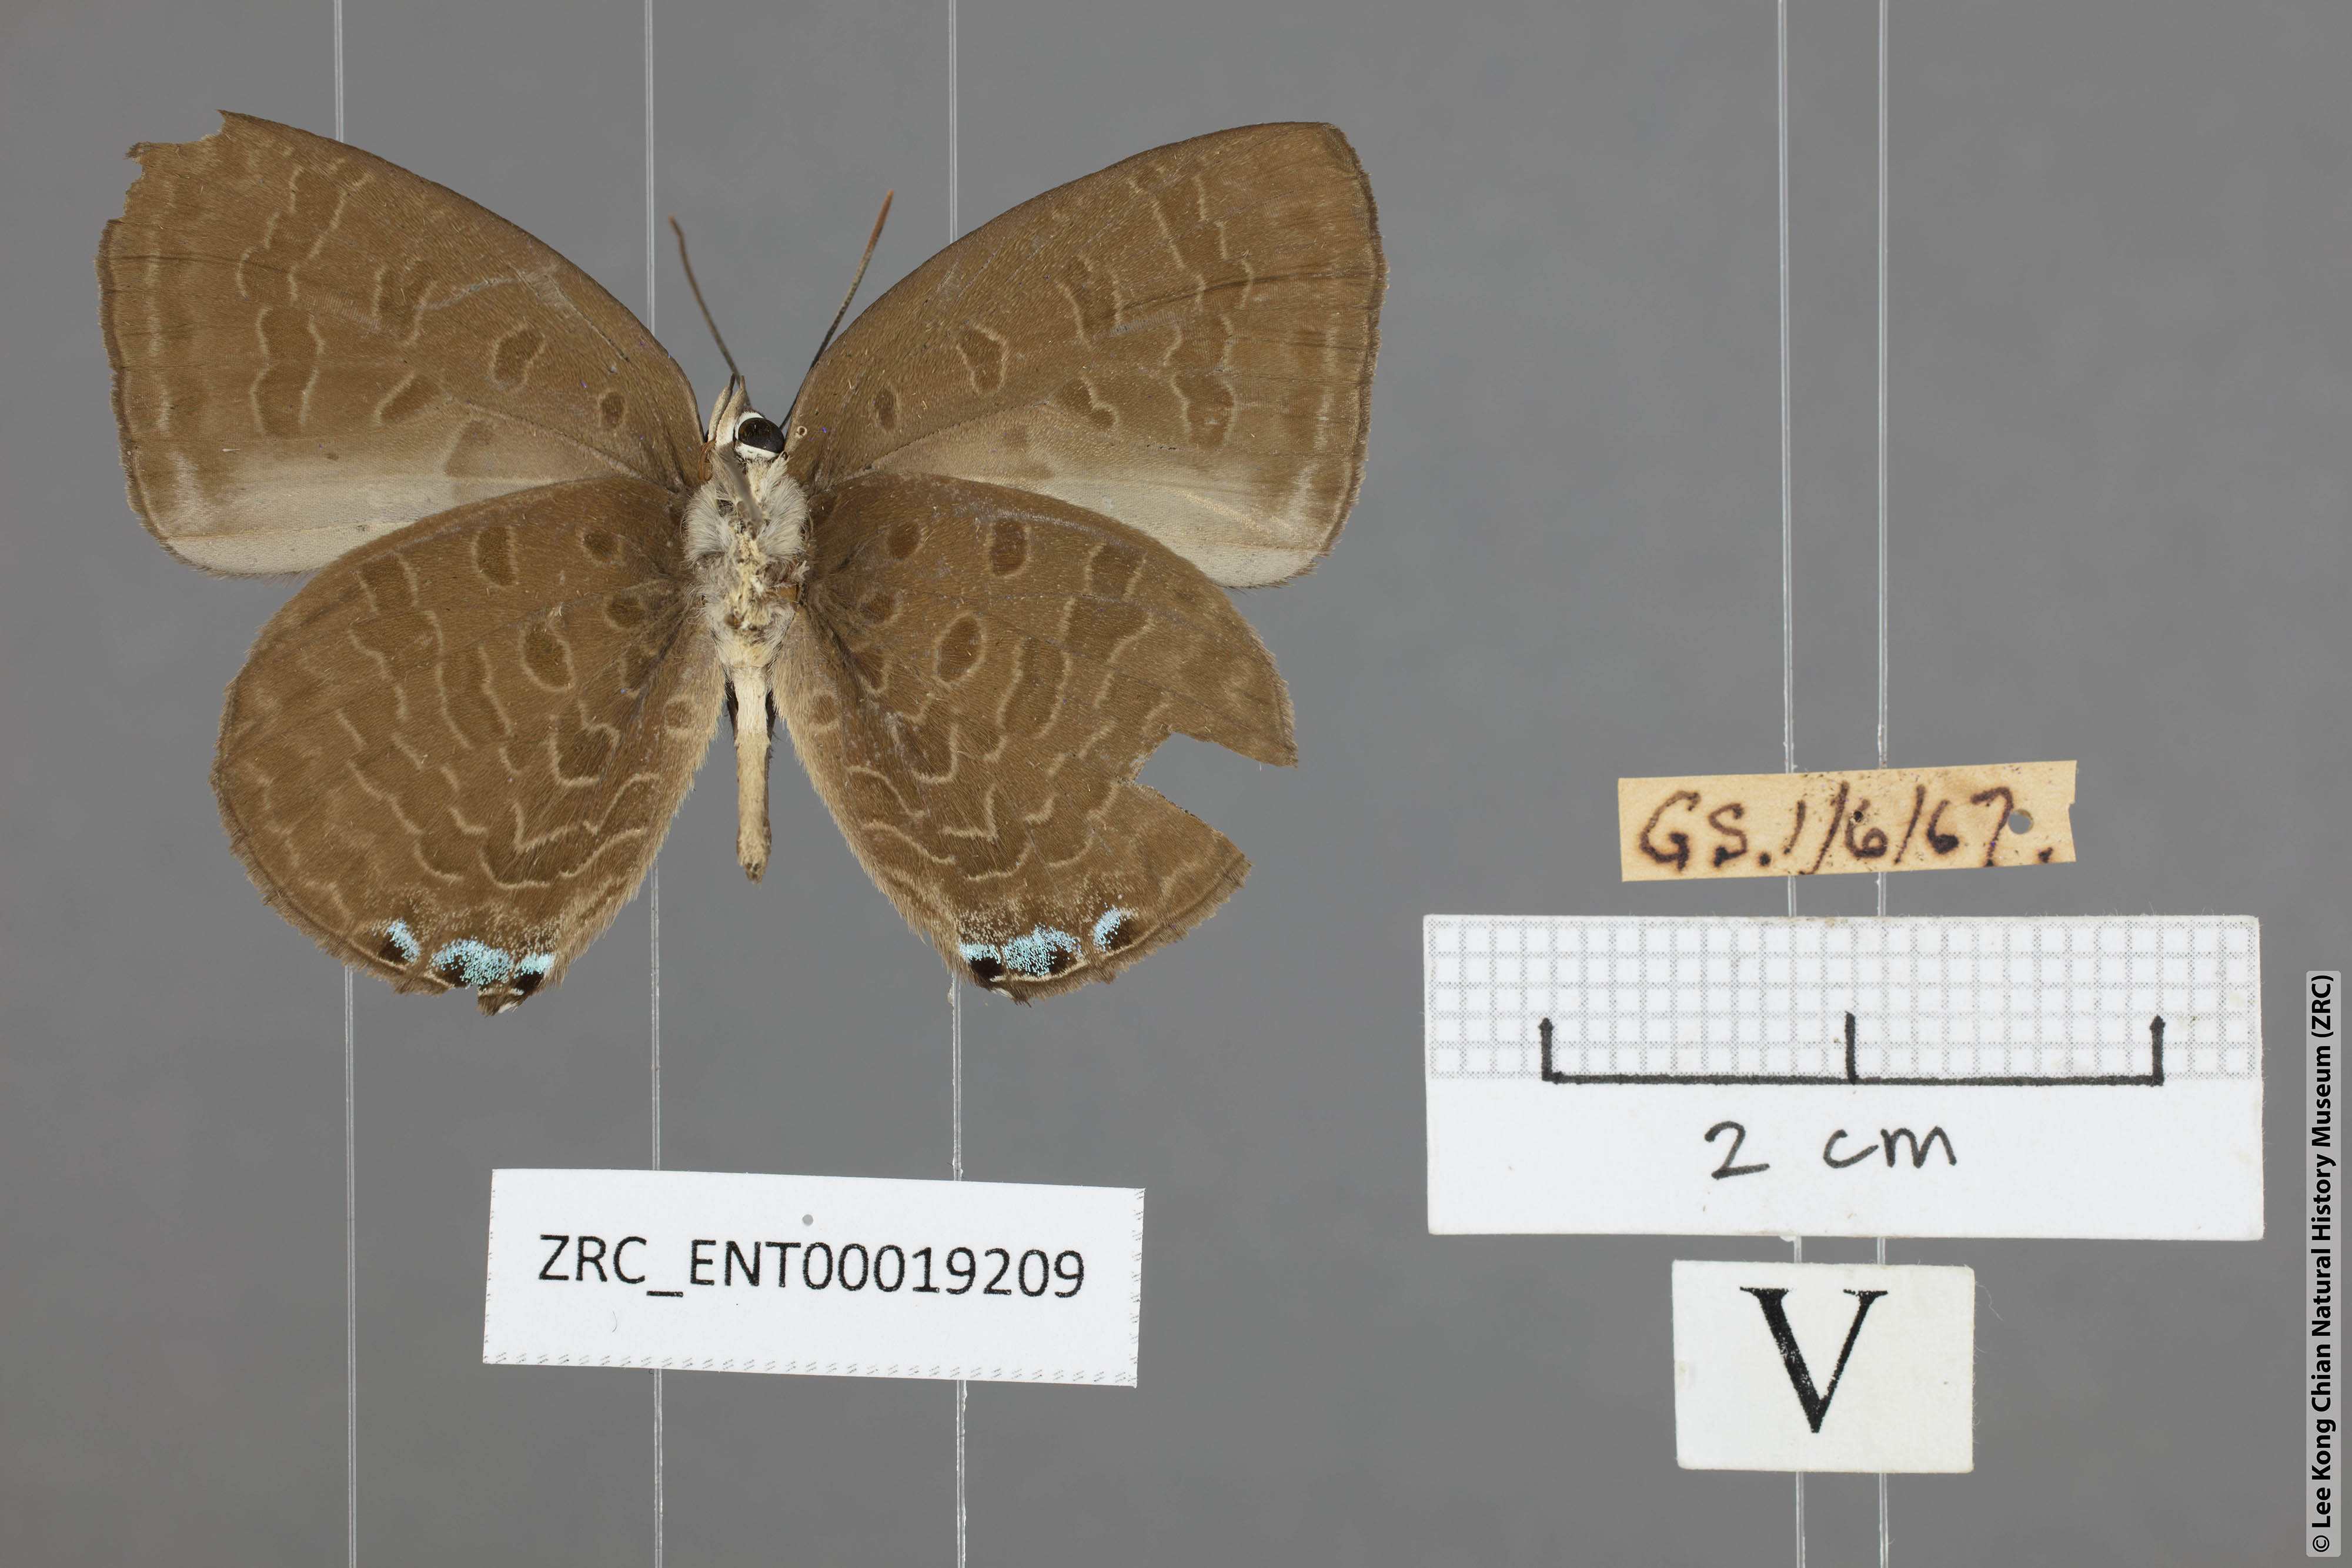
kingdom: Animalia
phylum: Arthropoda
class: Insecta
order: Lepidoptera
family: Lycaenidae
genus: Arhopala
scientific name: Arhopala arvina
